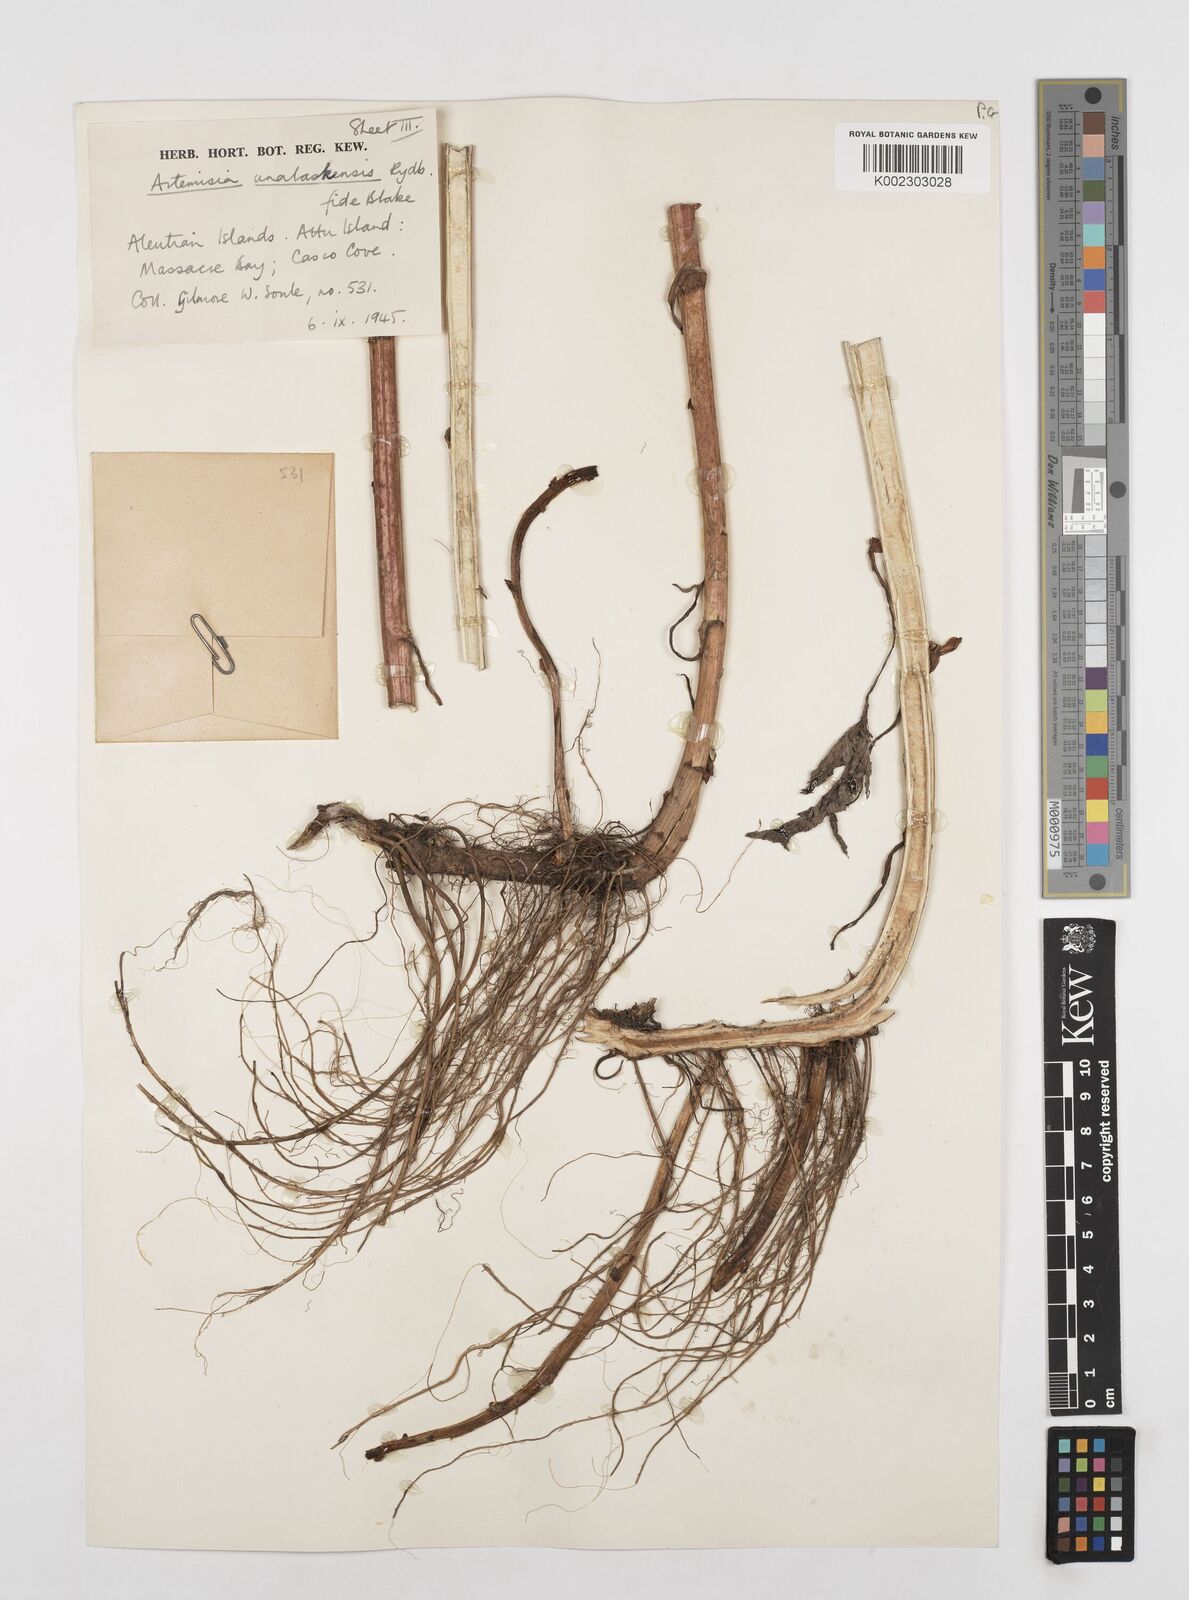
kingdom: Plantae
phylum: Tracheophyta
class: Magnoliopsida
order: Asterales
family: Asteraceae
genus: Artemisia
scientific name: Artemisia tilesii
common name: Aleutian mugwort
